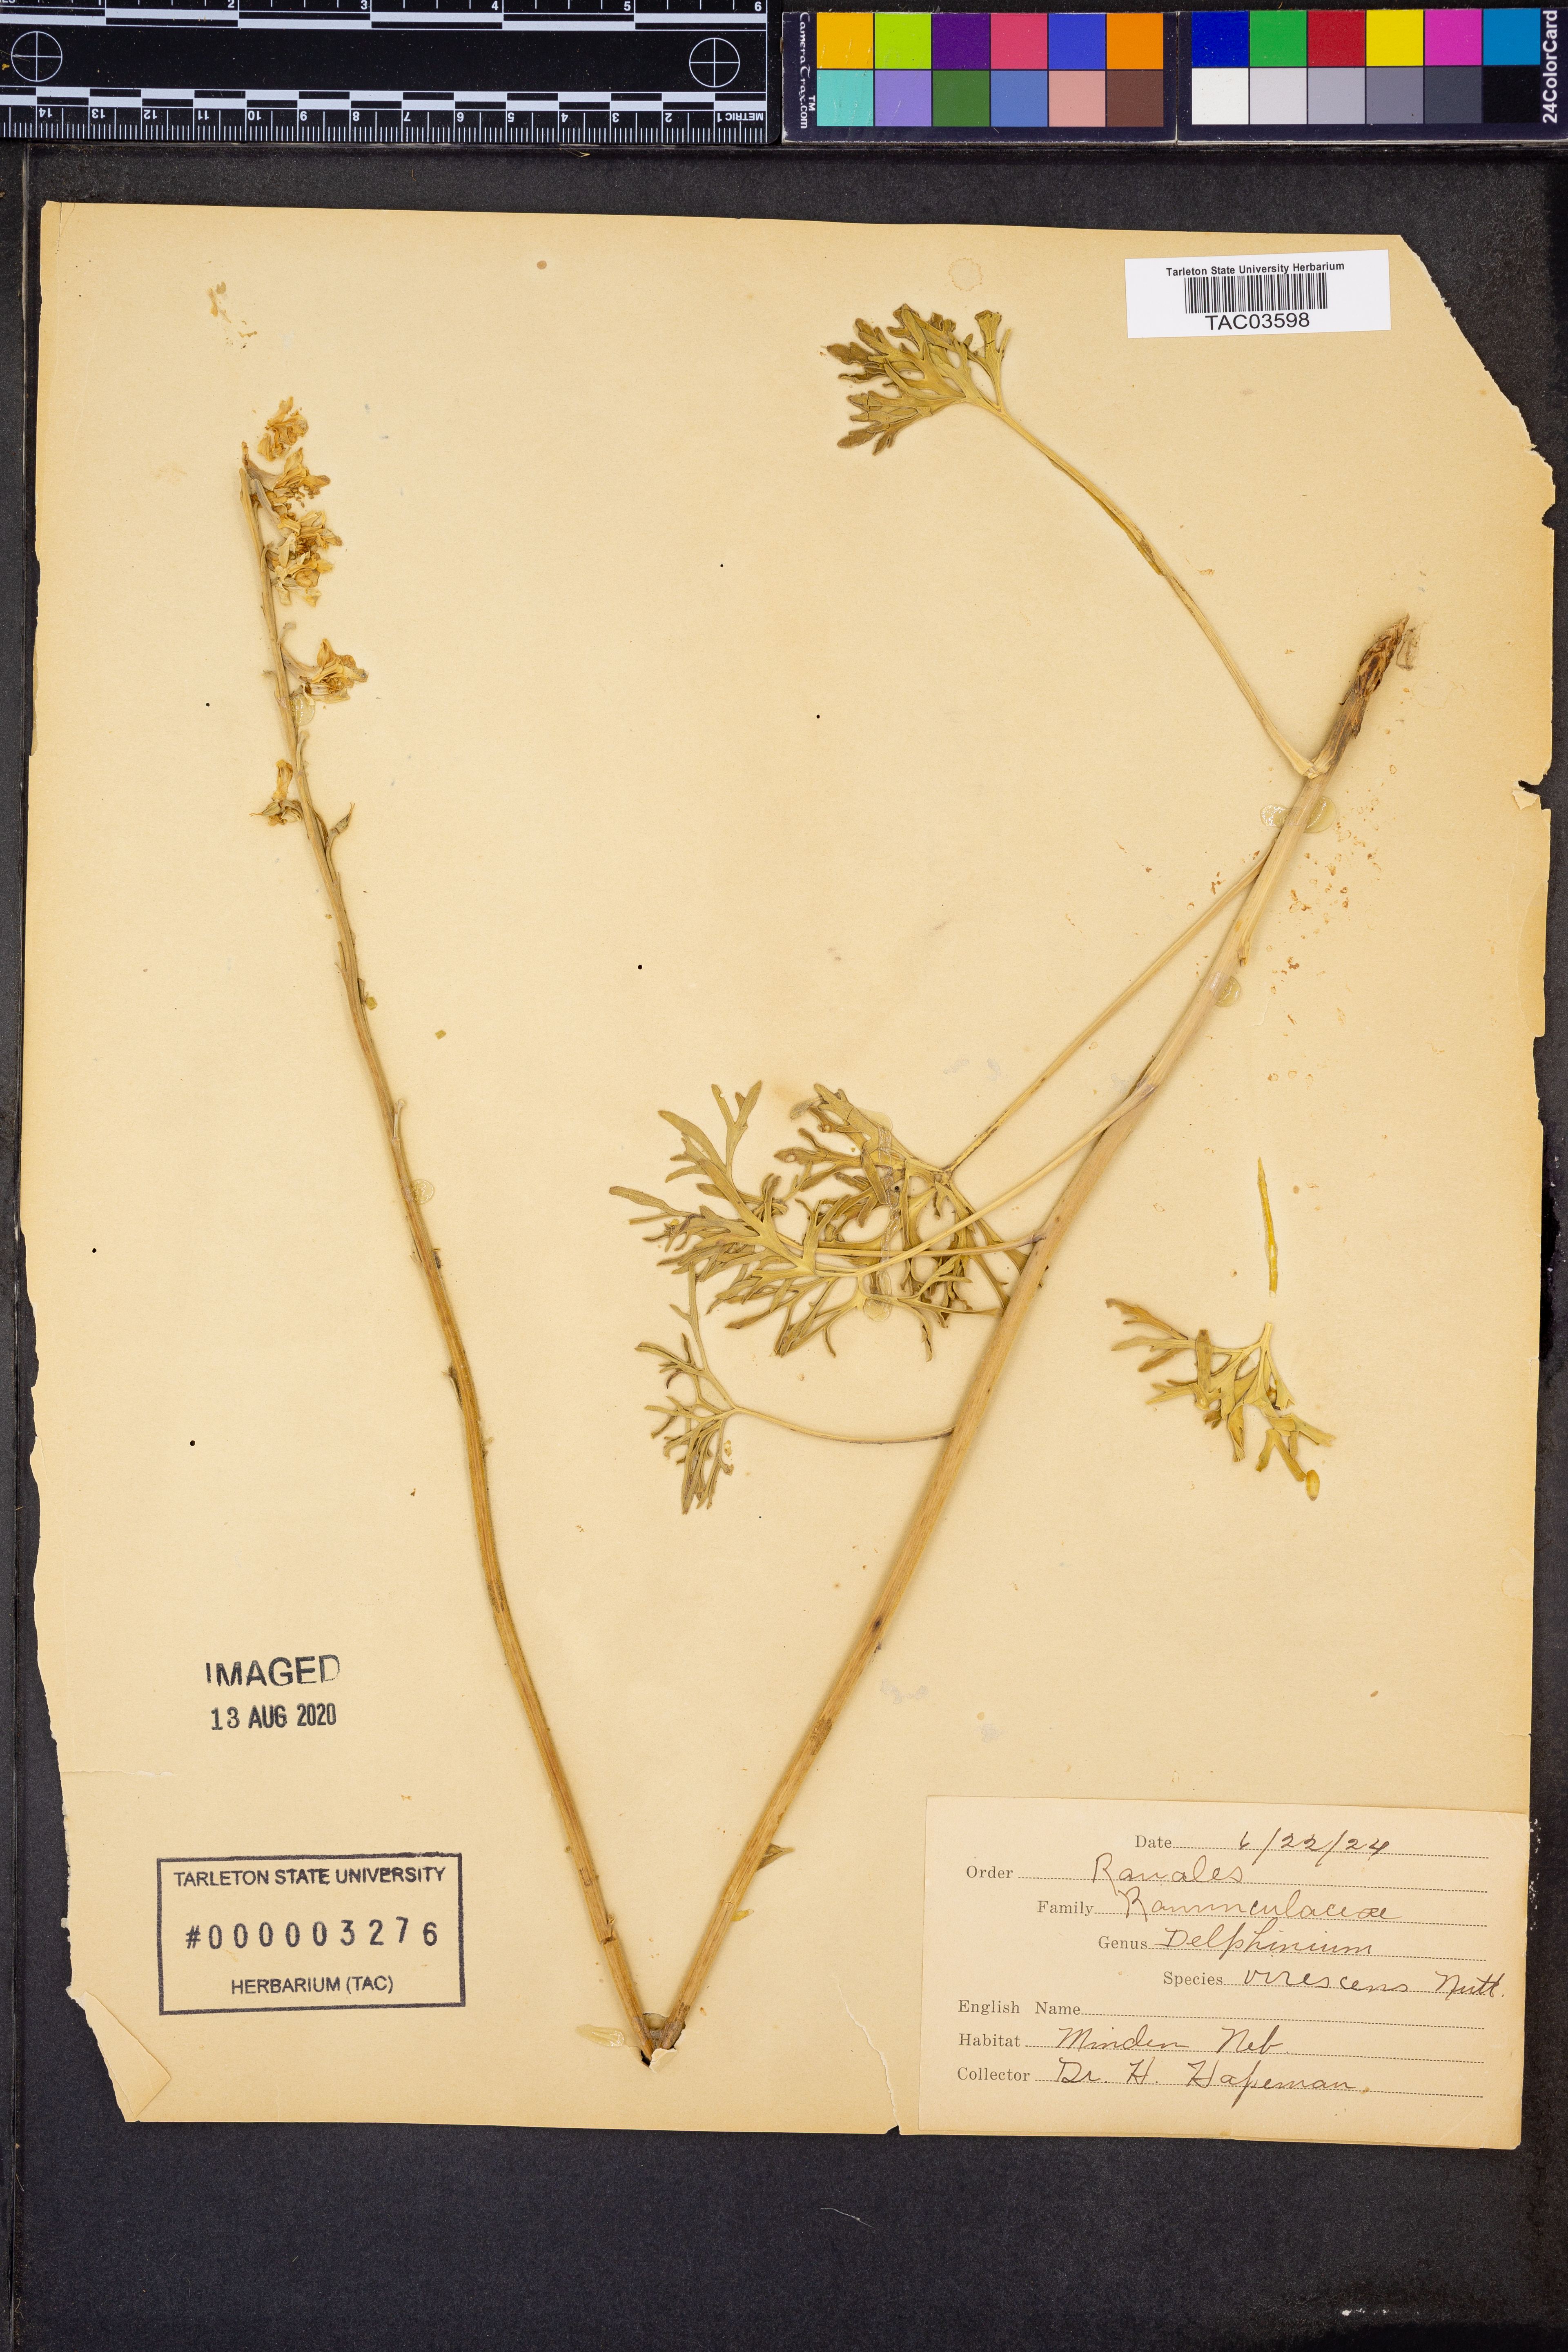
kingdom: Plantae
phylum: Tracheophyta
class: Magnoliopsida
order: Ranunculales
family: Ranunculaceae
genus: Delphinium
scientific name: Delphinium carolinianum
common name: Carolina larkspur
